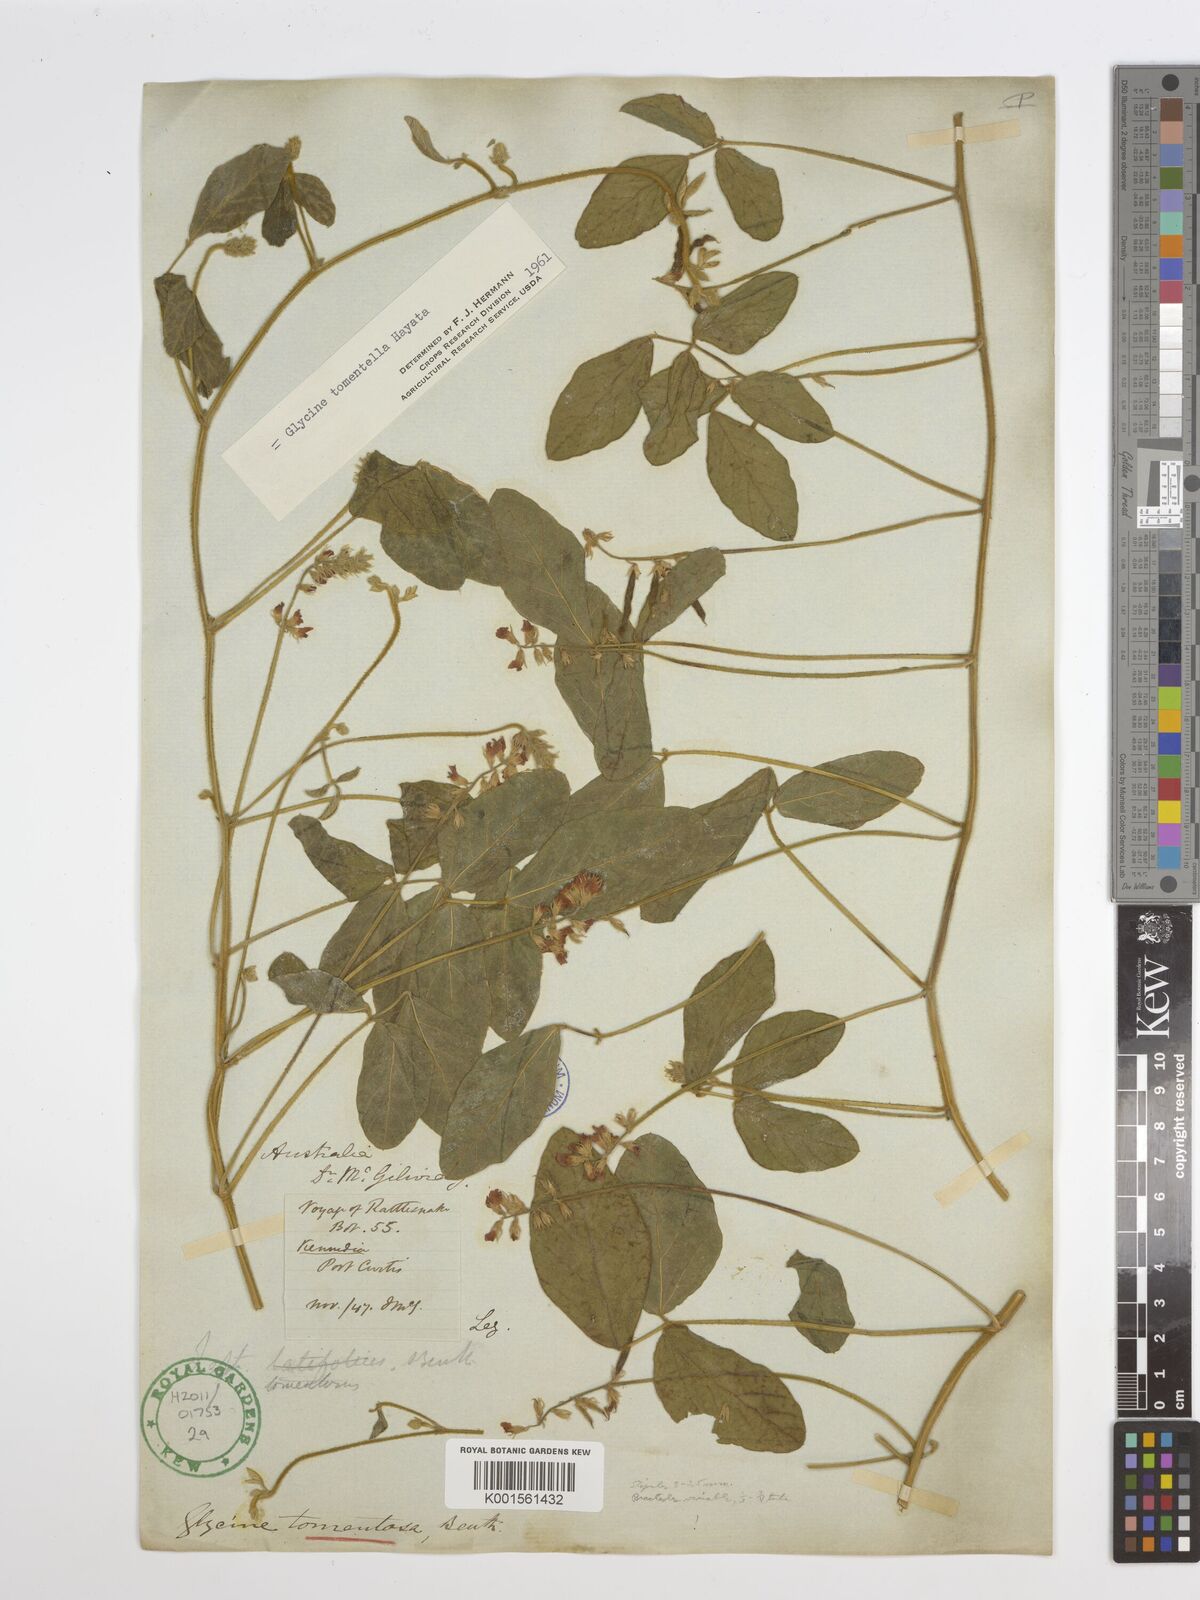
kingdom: Plantae
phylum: Tracheophyta
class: Magnoliopsida
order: Fabales
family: Fabaceae
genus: Glycine
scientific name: Glycine tomentella
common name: Hairy glycine
